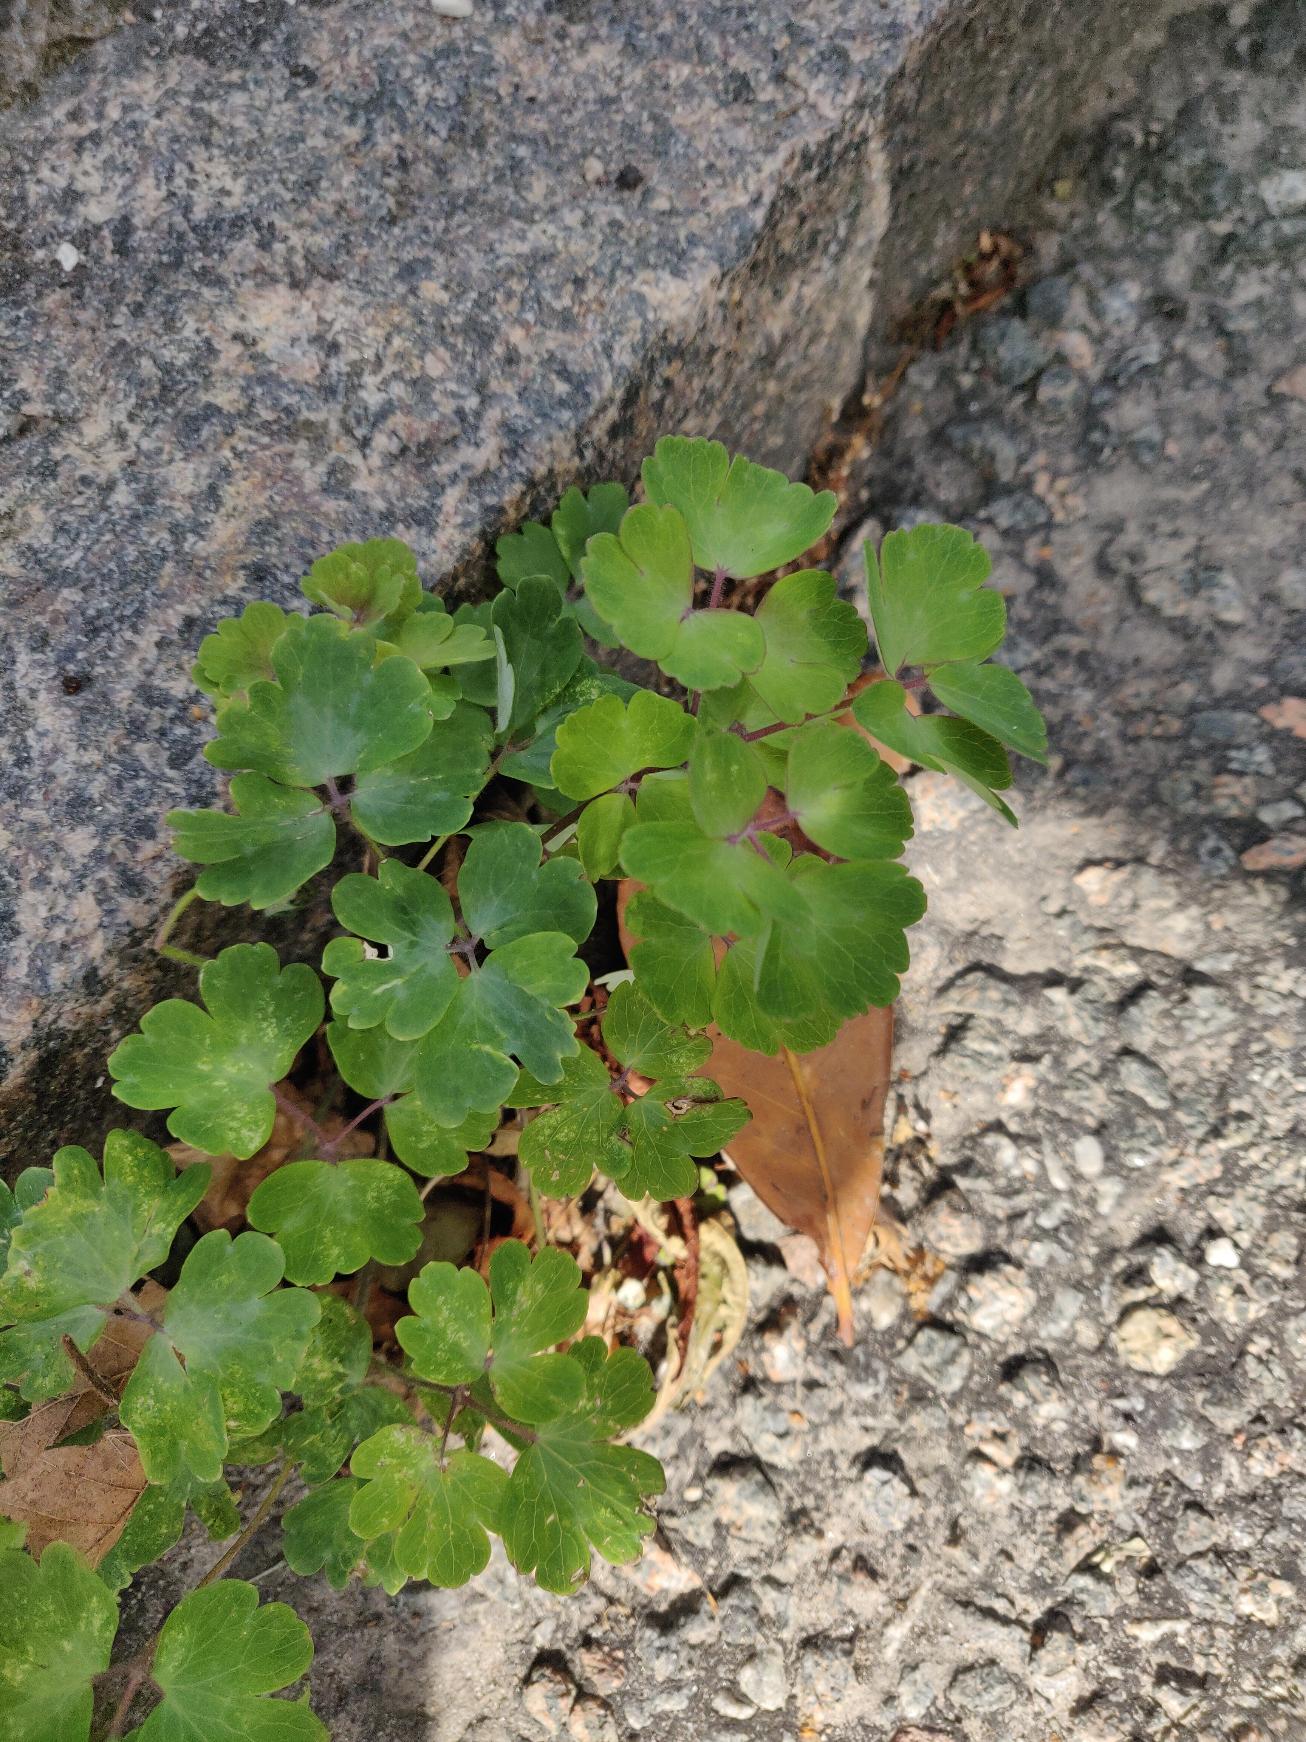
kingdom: Plantae
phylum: Tracheophyta
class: Magnoliopsida
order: Ranunculales
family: Ranunculaceae
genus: Aquilegia
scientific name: Aquilegia vulgaris
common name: Akeleje
